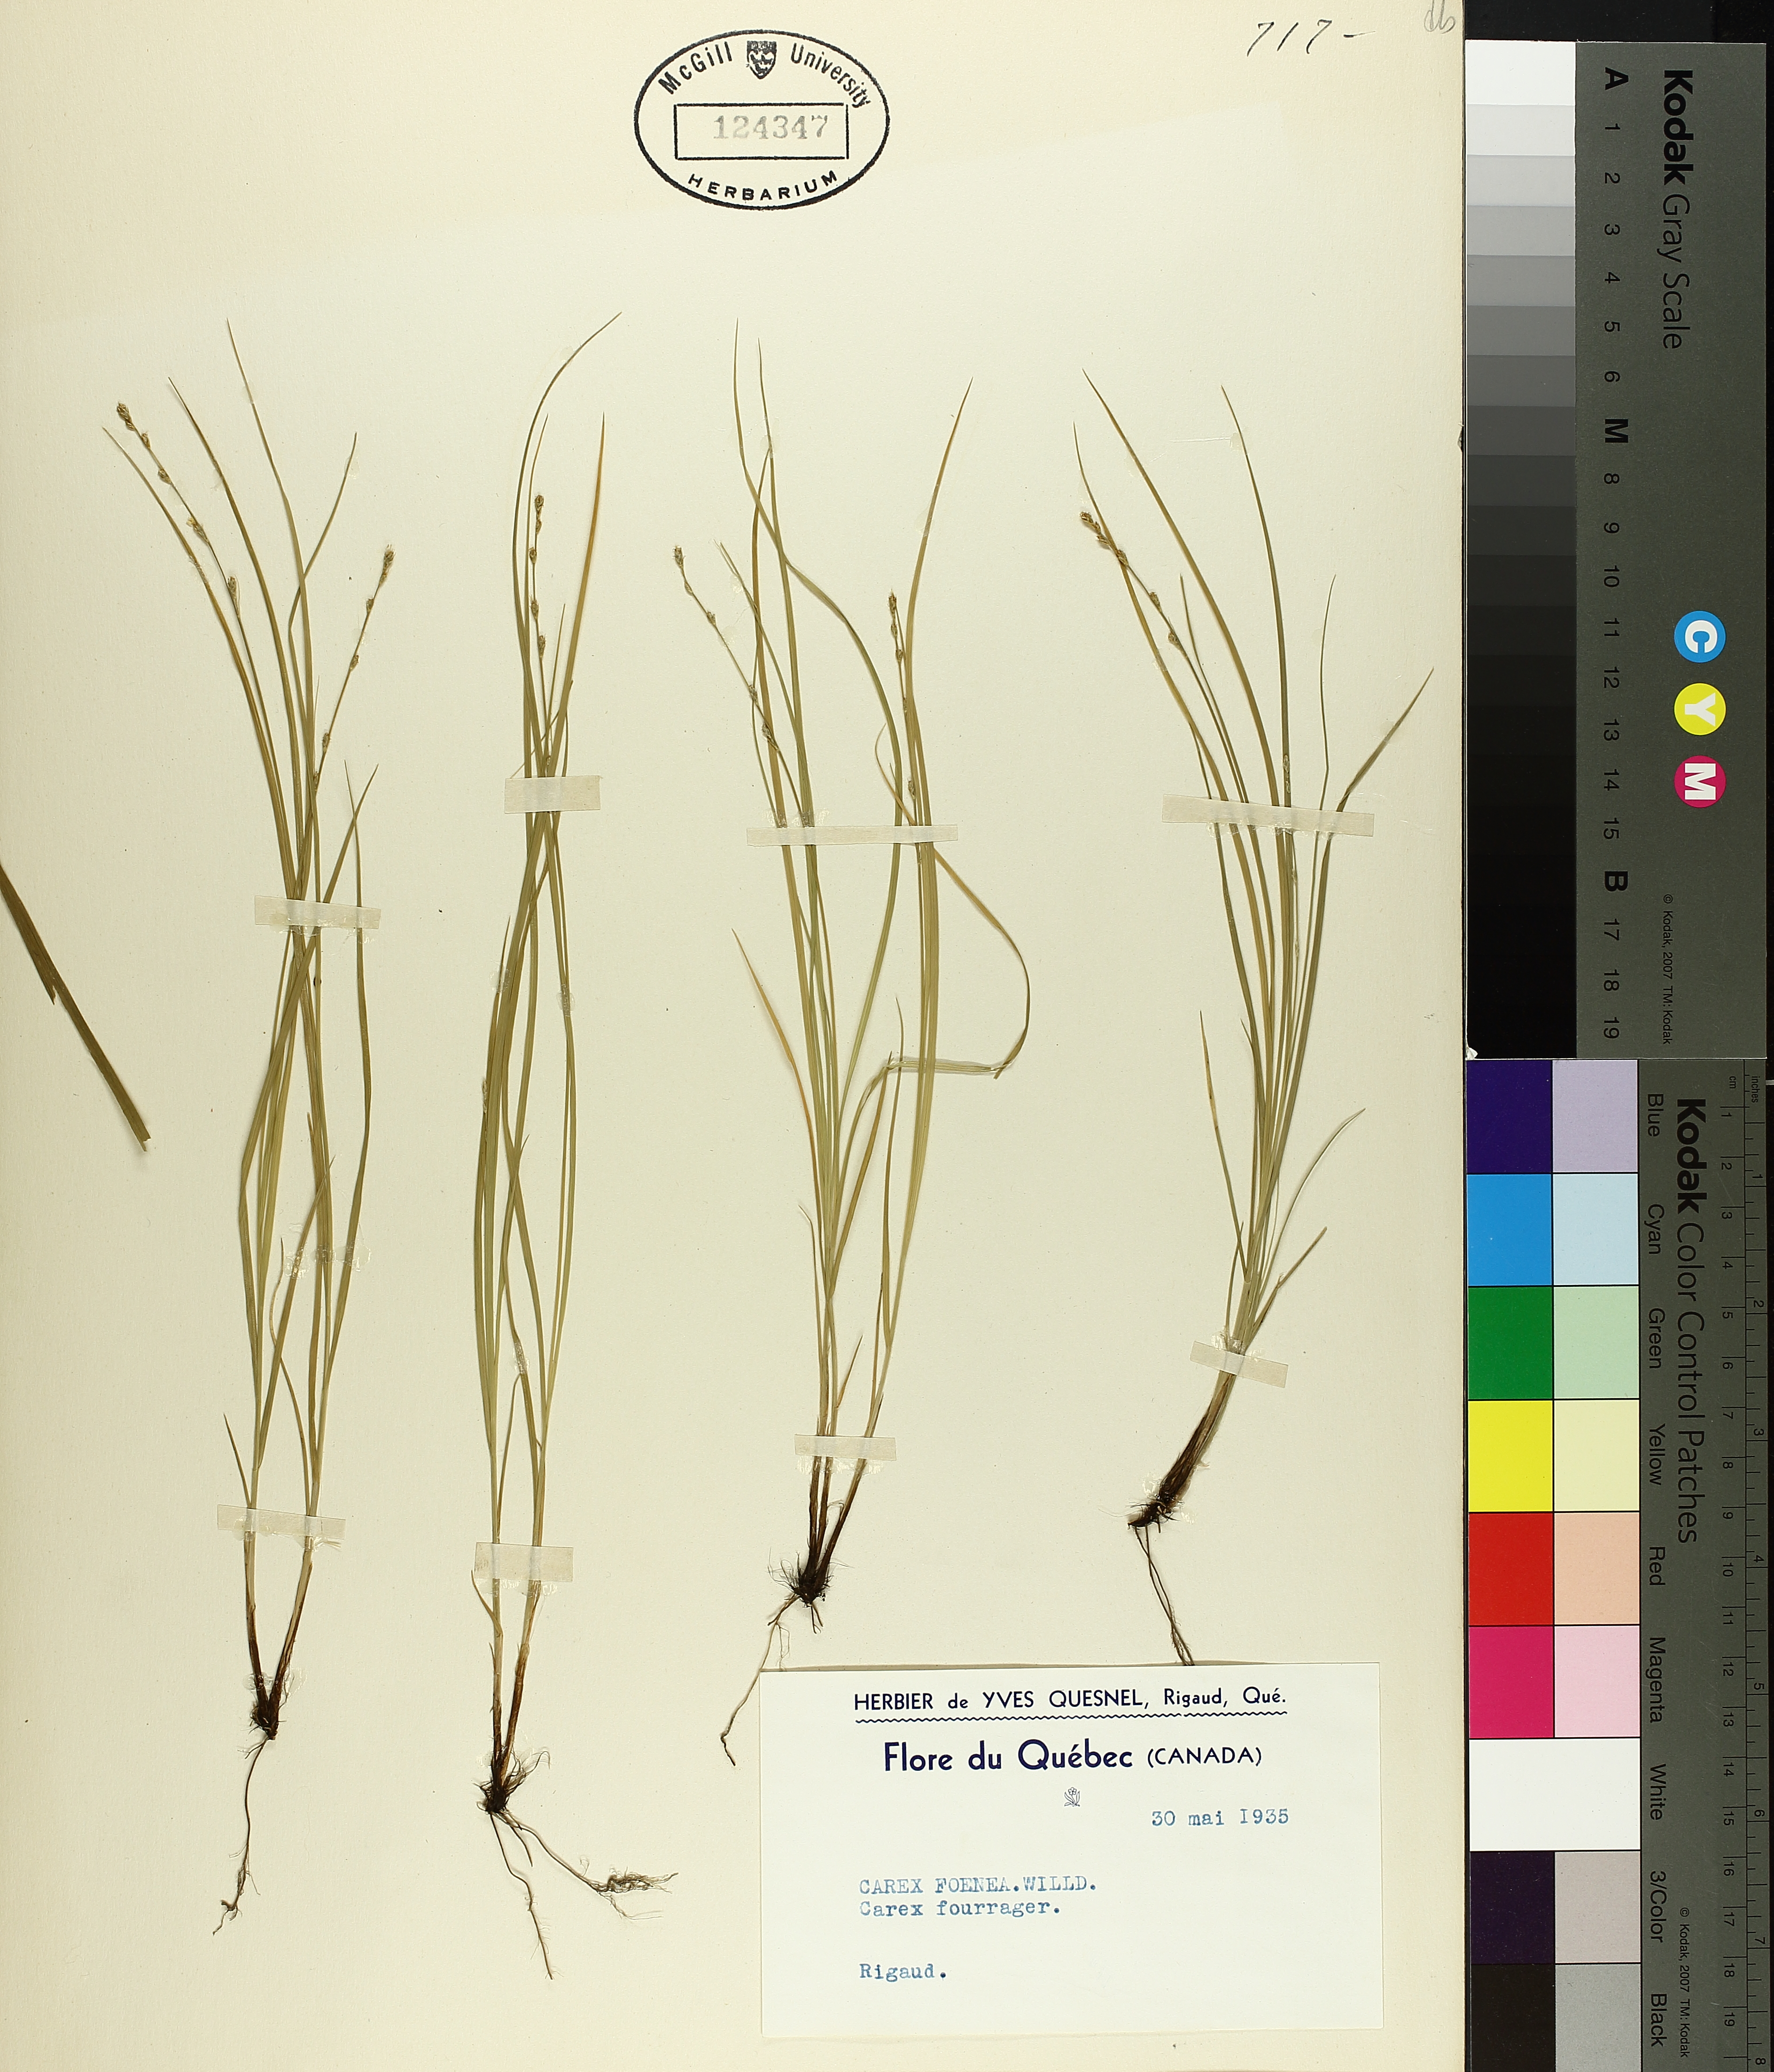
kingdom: Plantae
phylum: Tracheophyta
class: Liliopsida
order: Poales
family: Cyperaceae
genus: Carex
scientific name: Carex foenea
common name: Bronze sedge
